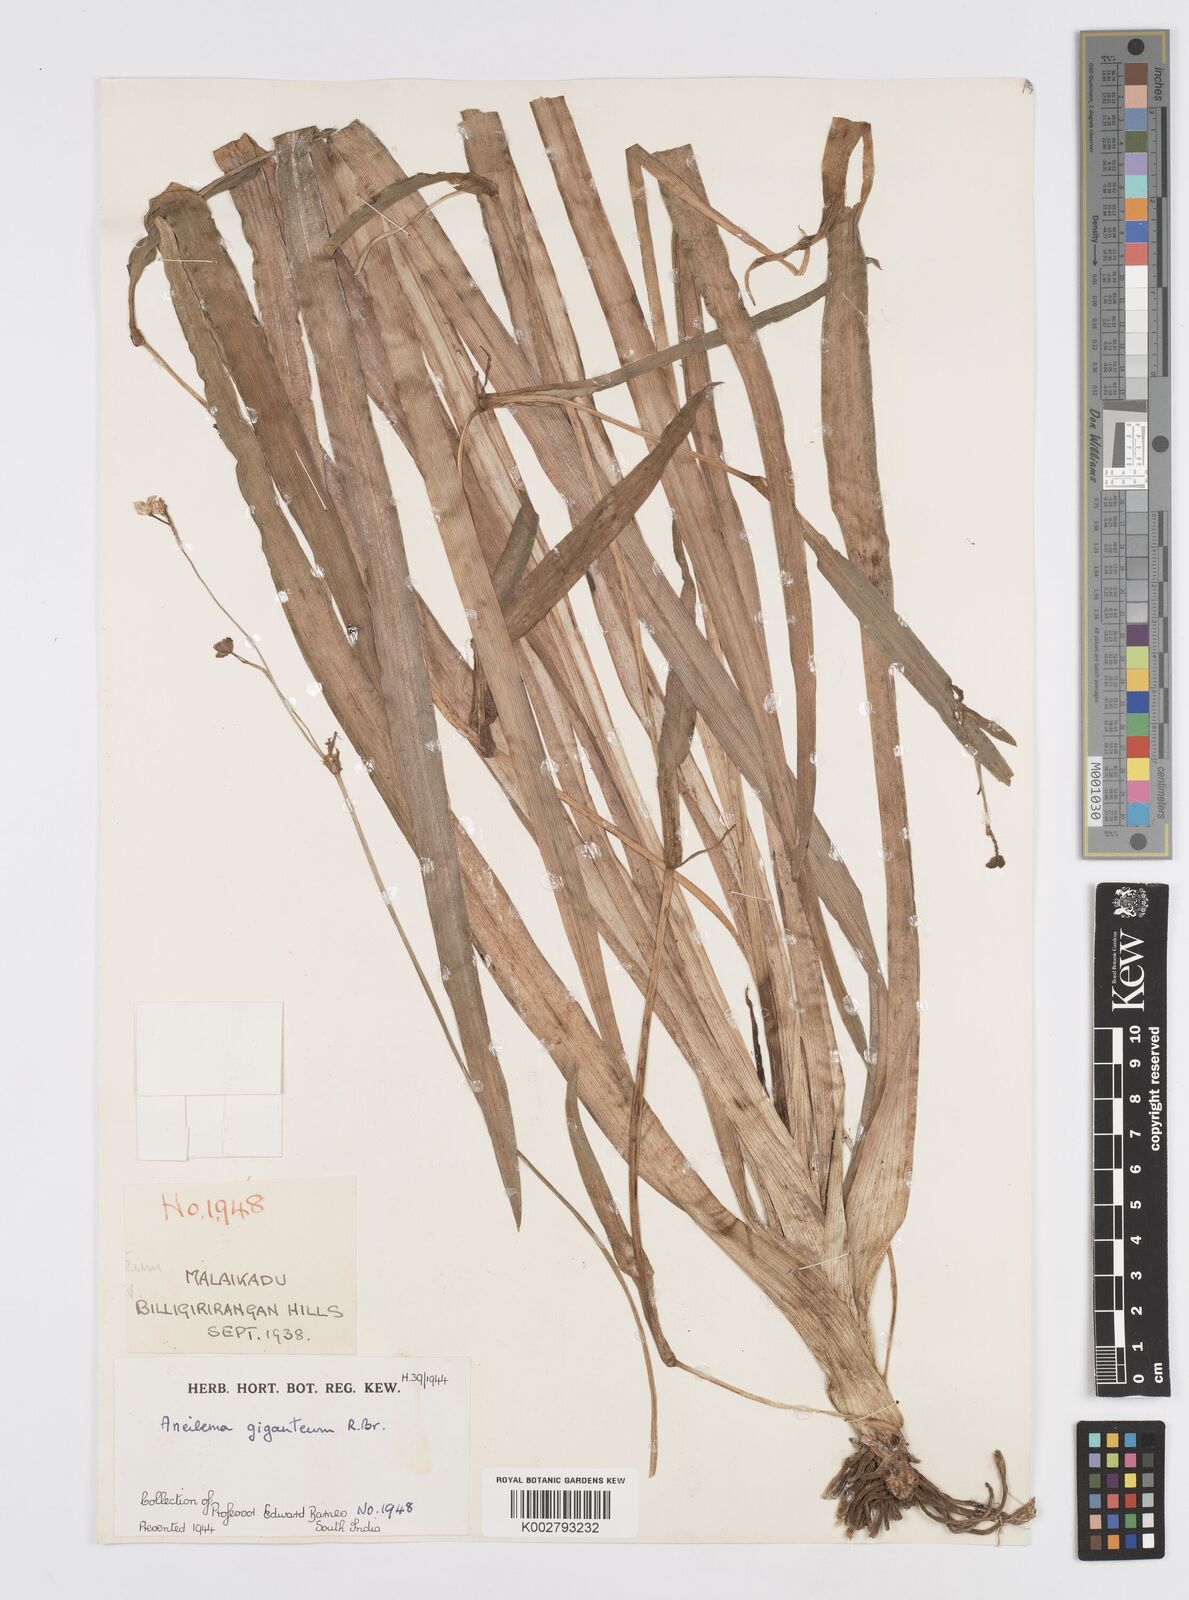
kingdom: Plantae
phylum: Tracheophyta
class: Liliopsida
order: Commelinales
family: Commelinaceae
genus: Murdannia
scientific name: Murdannia gigantea
